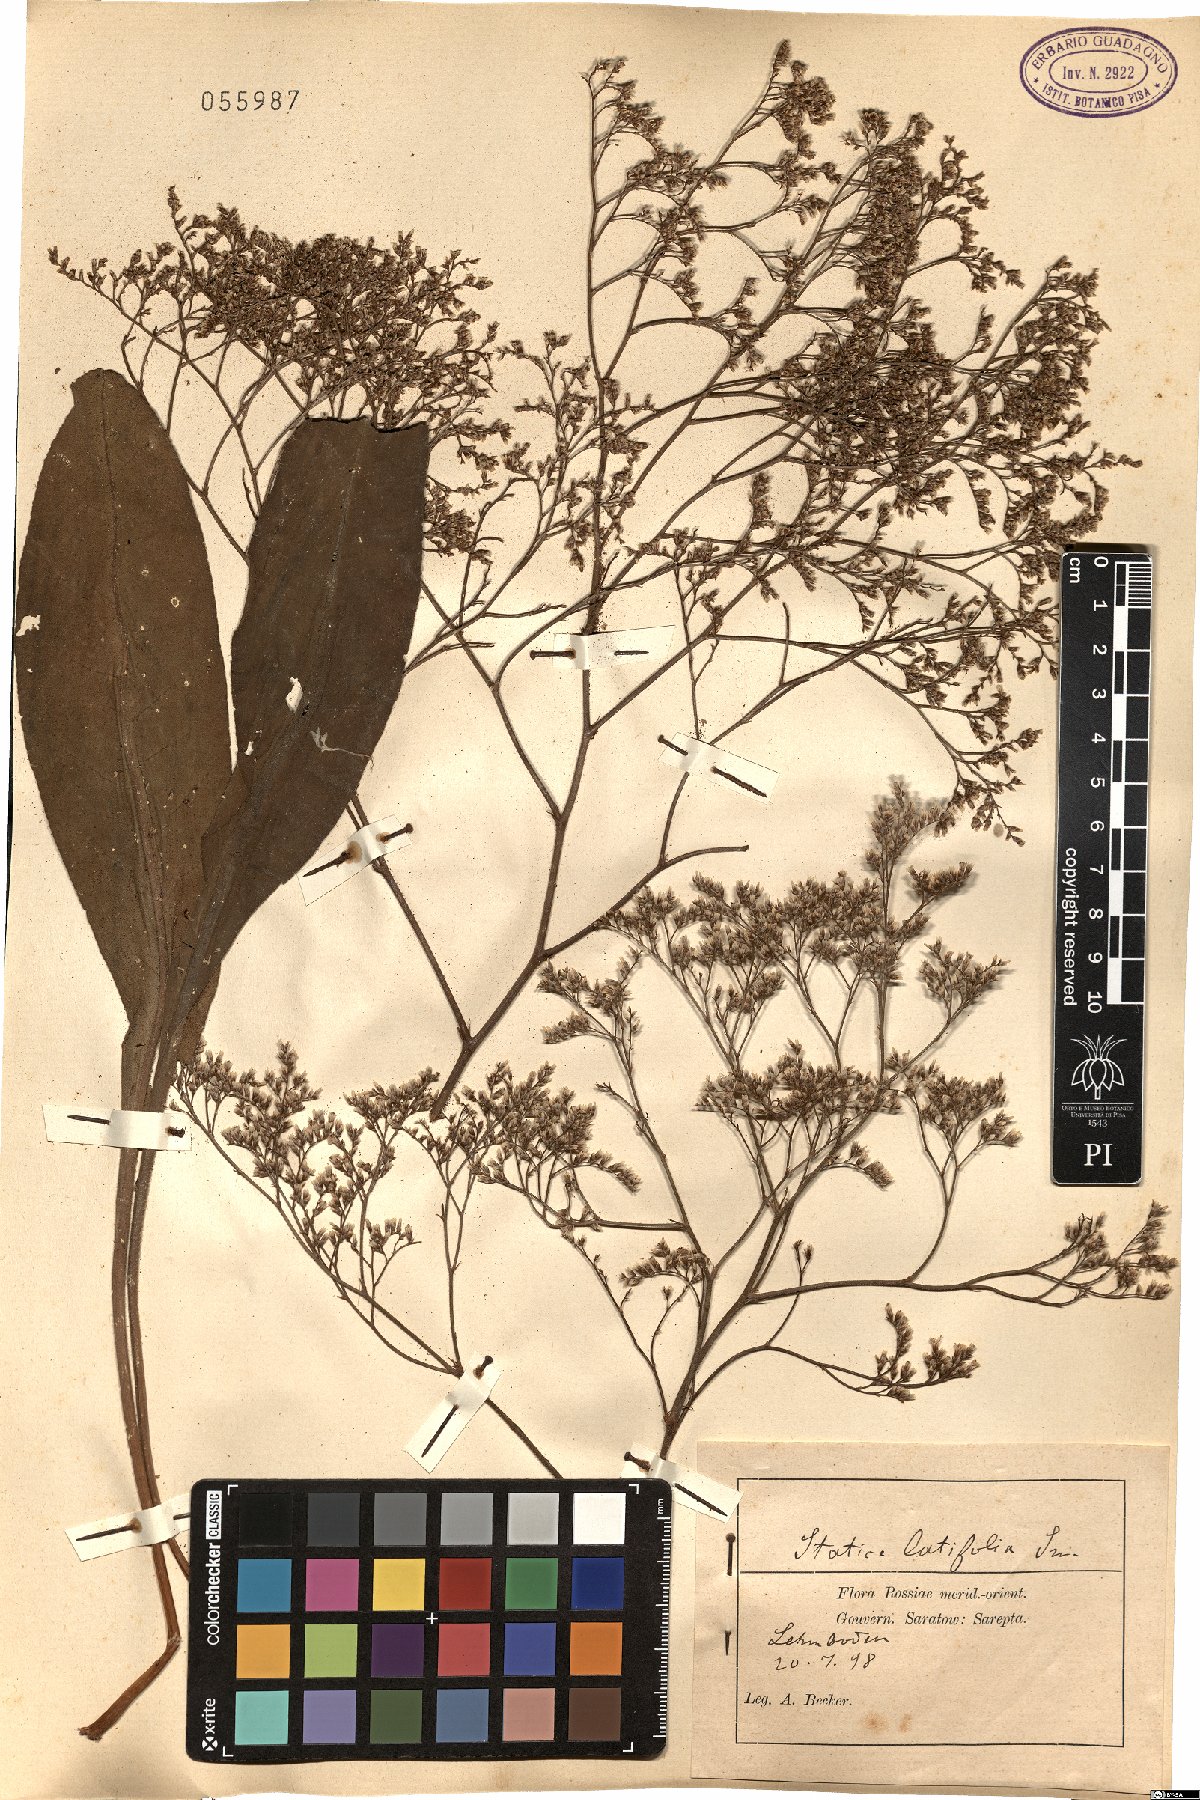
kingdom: Plantae
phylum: Tracheophyta
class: Magnoliopsida
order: Caryophyllales
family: Plumbaginaceae
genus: Limonium
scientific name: Limonium platyphyllum
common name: Florist's sea lavender
